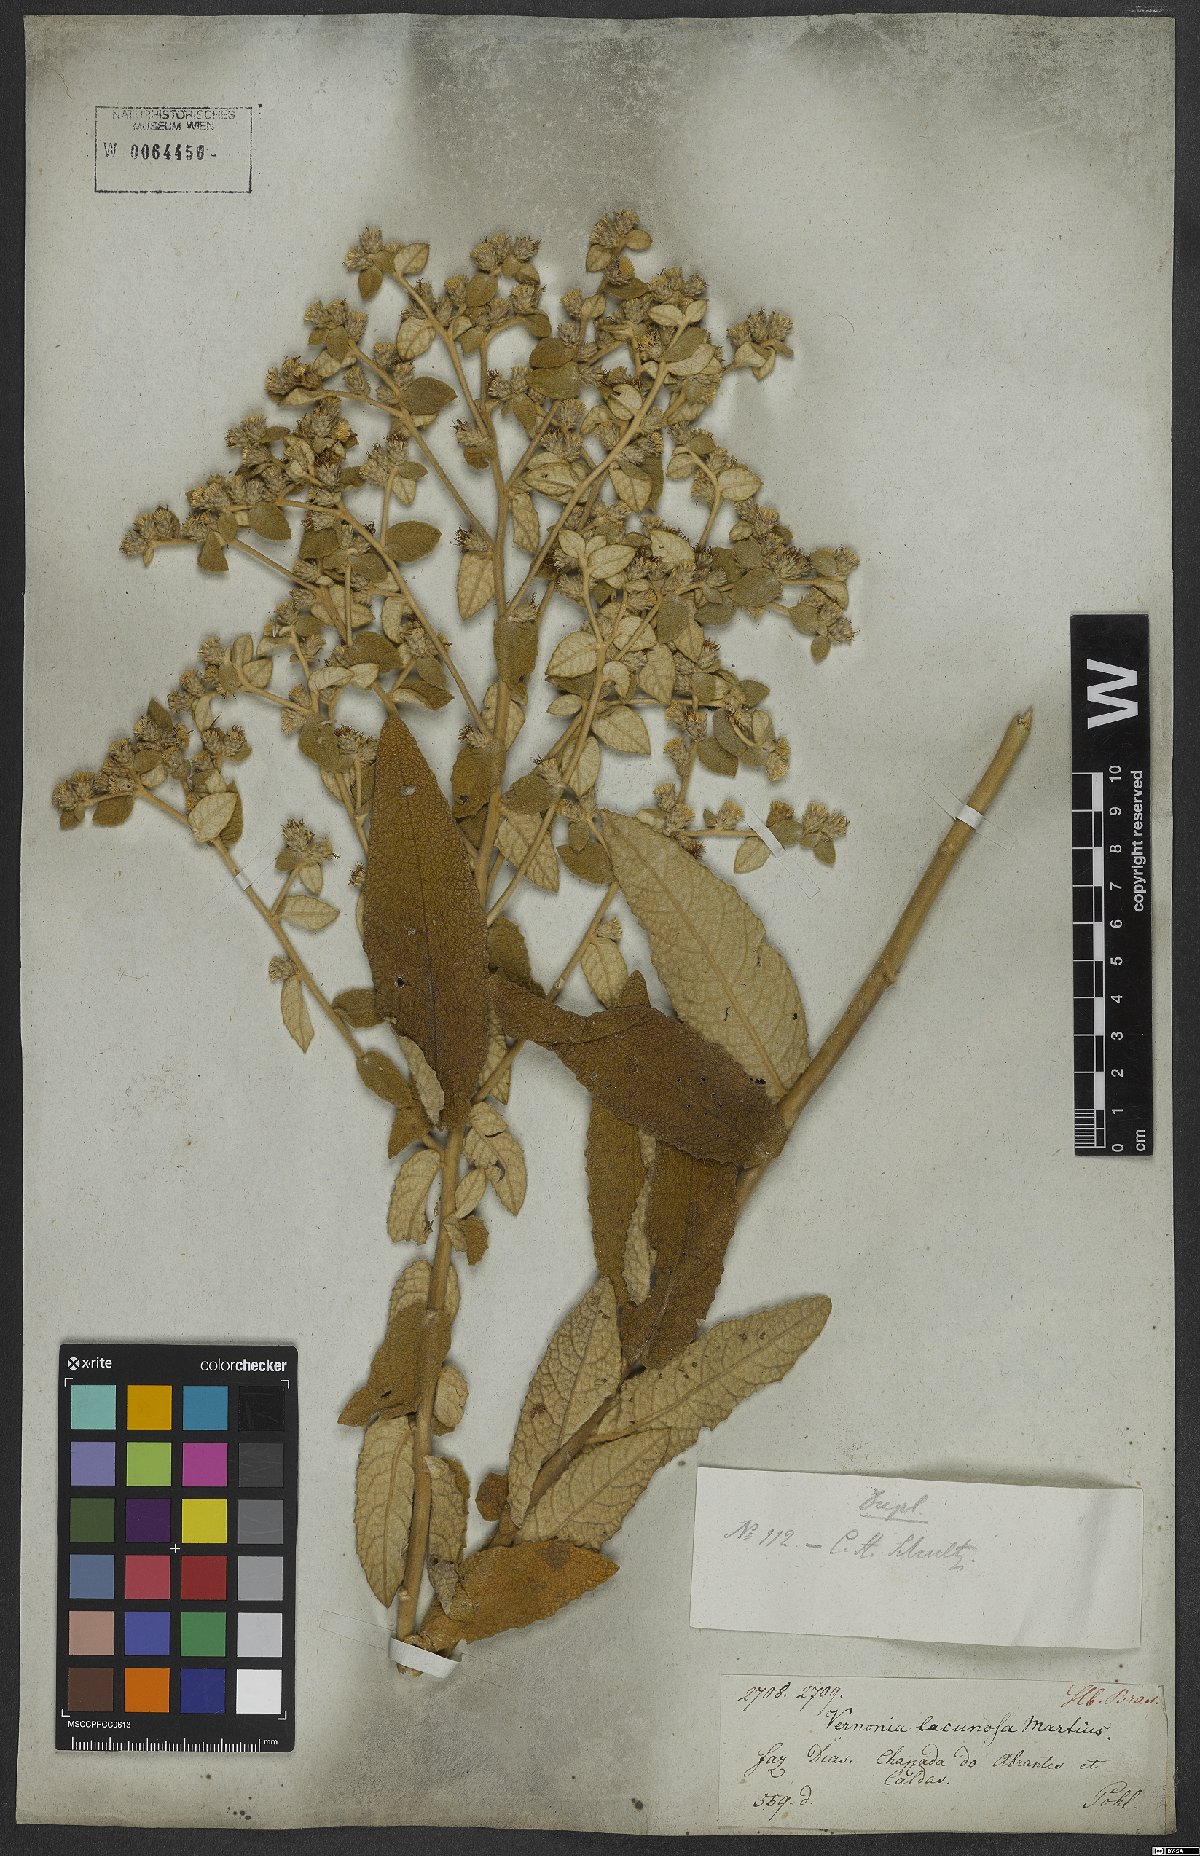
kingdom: Plantae
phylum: Tracheophyta
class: Magnoliopsida
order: Asterales
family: Asteraceae
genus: Lessingianthus
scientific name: Lessingianthus lacunosus
